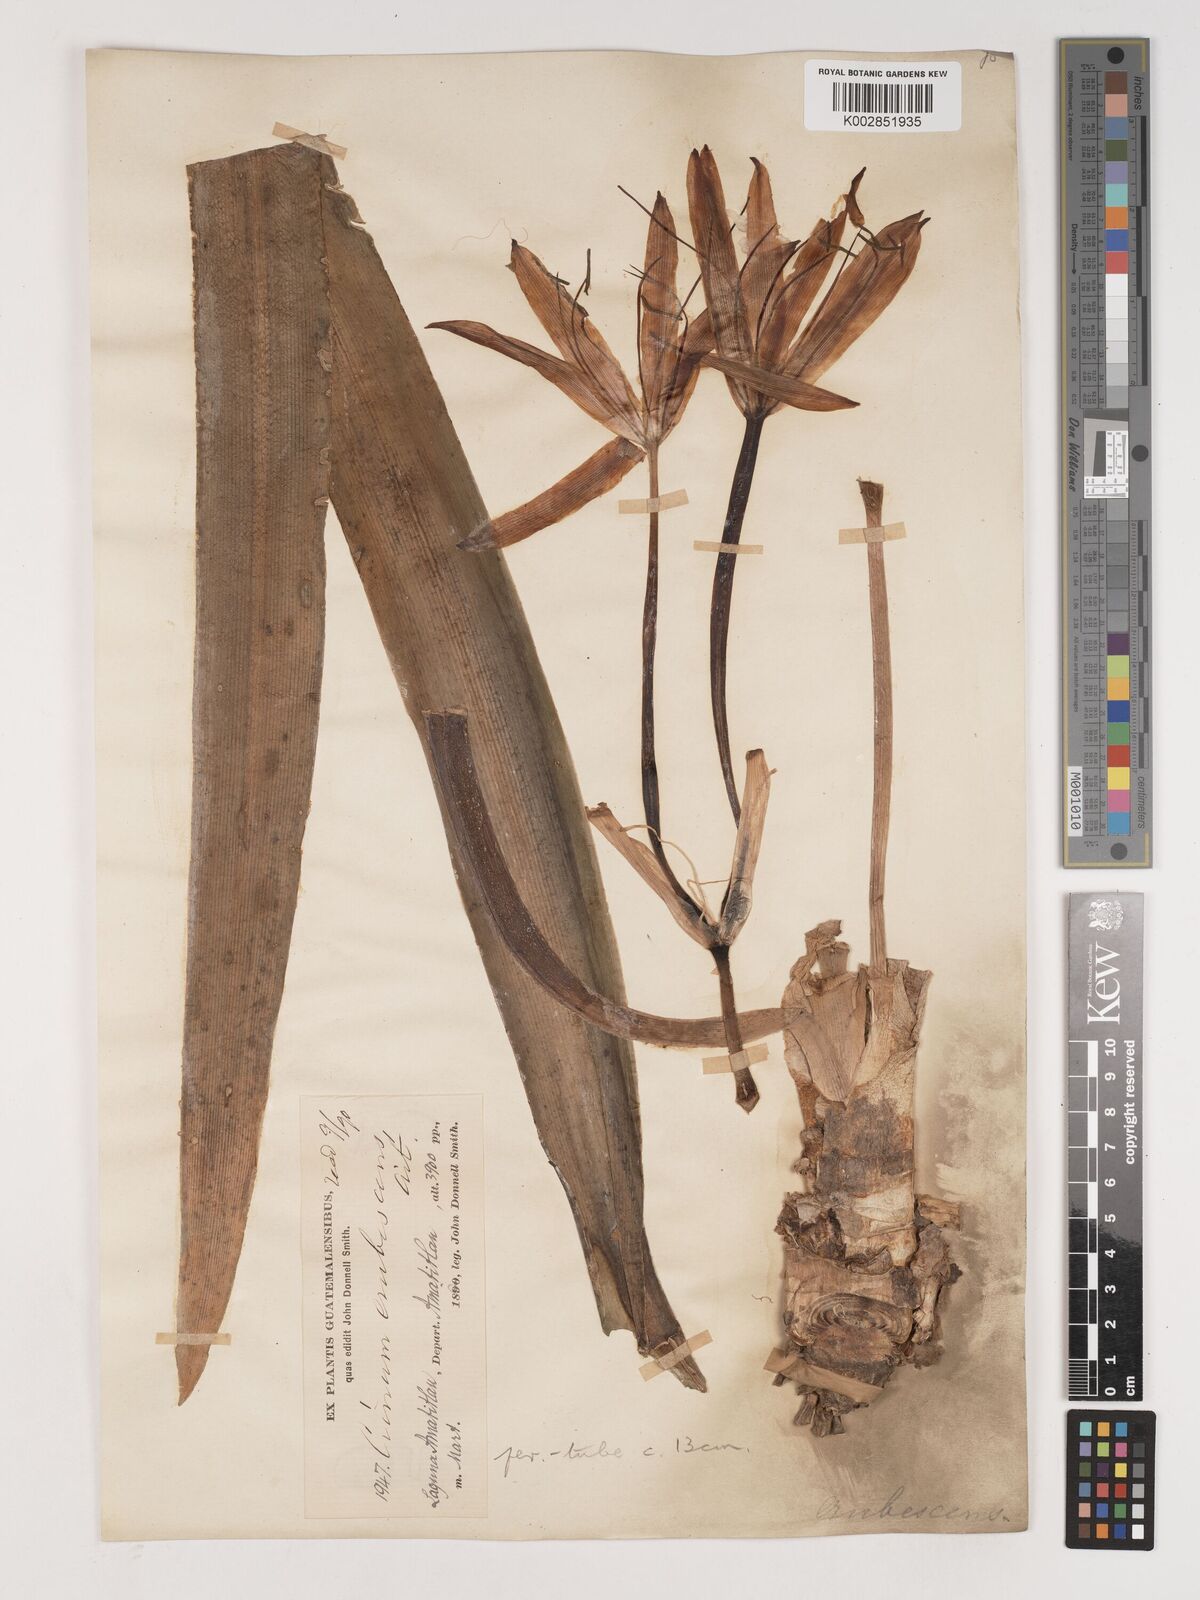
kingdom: Plantae
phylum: Tracheophyta
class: Liliopsida
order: Asparagales
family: Amaryllidaceae
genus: Crinum
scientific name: Crinum americanum
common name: Florida swamp-lily
